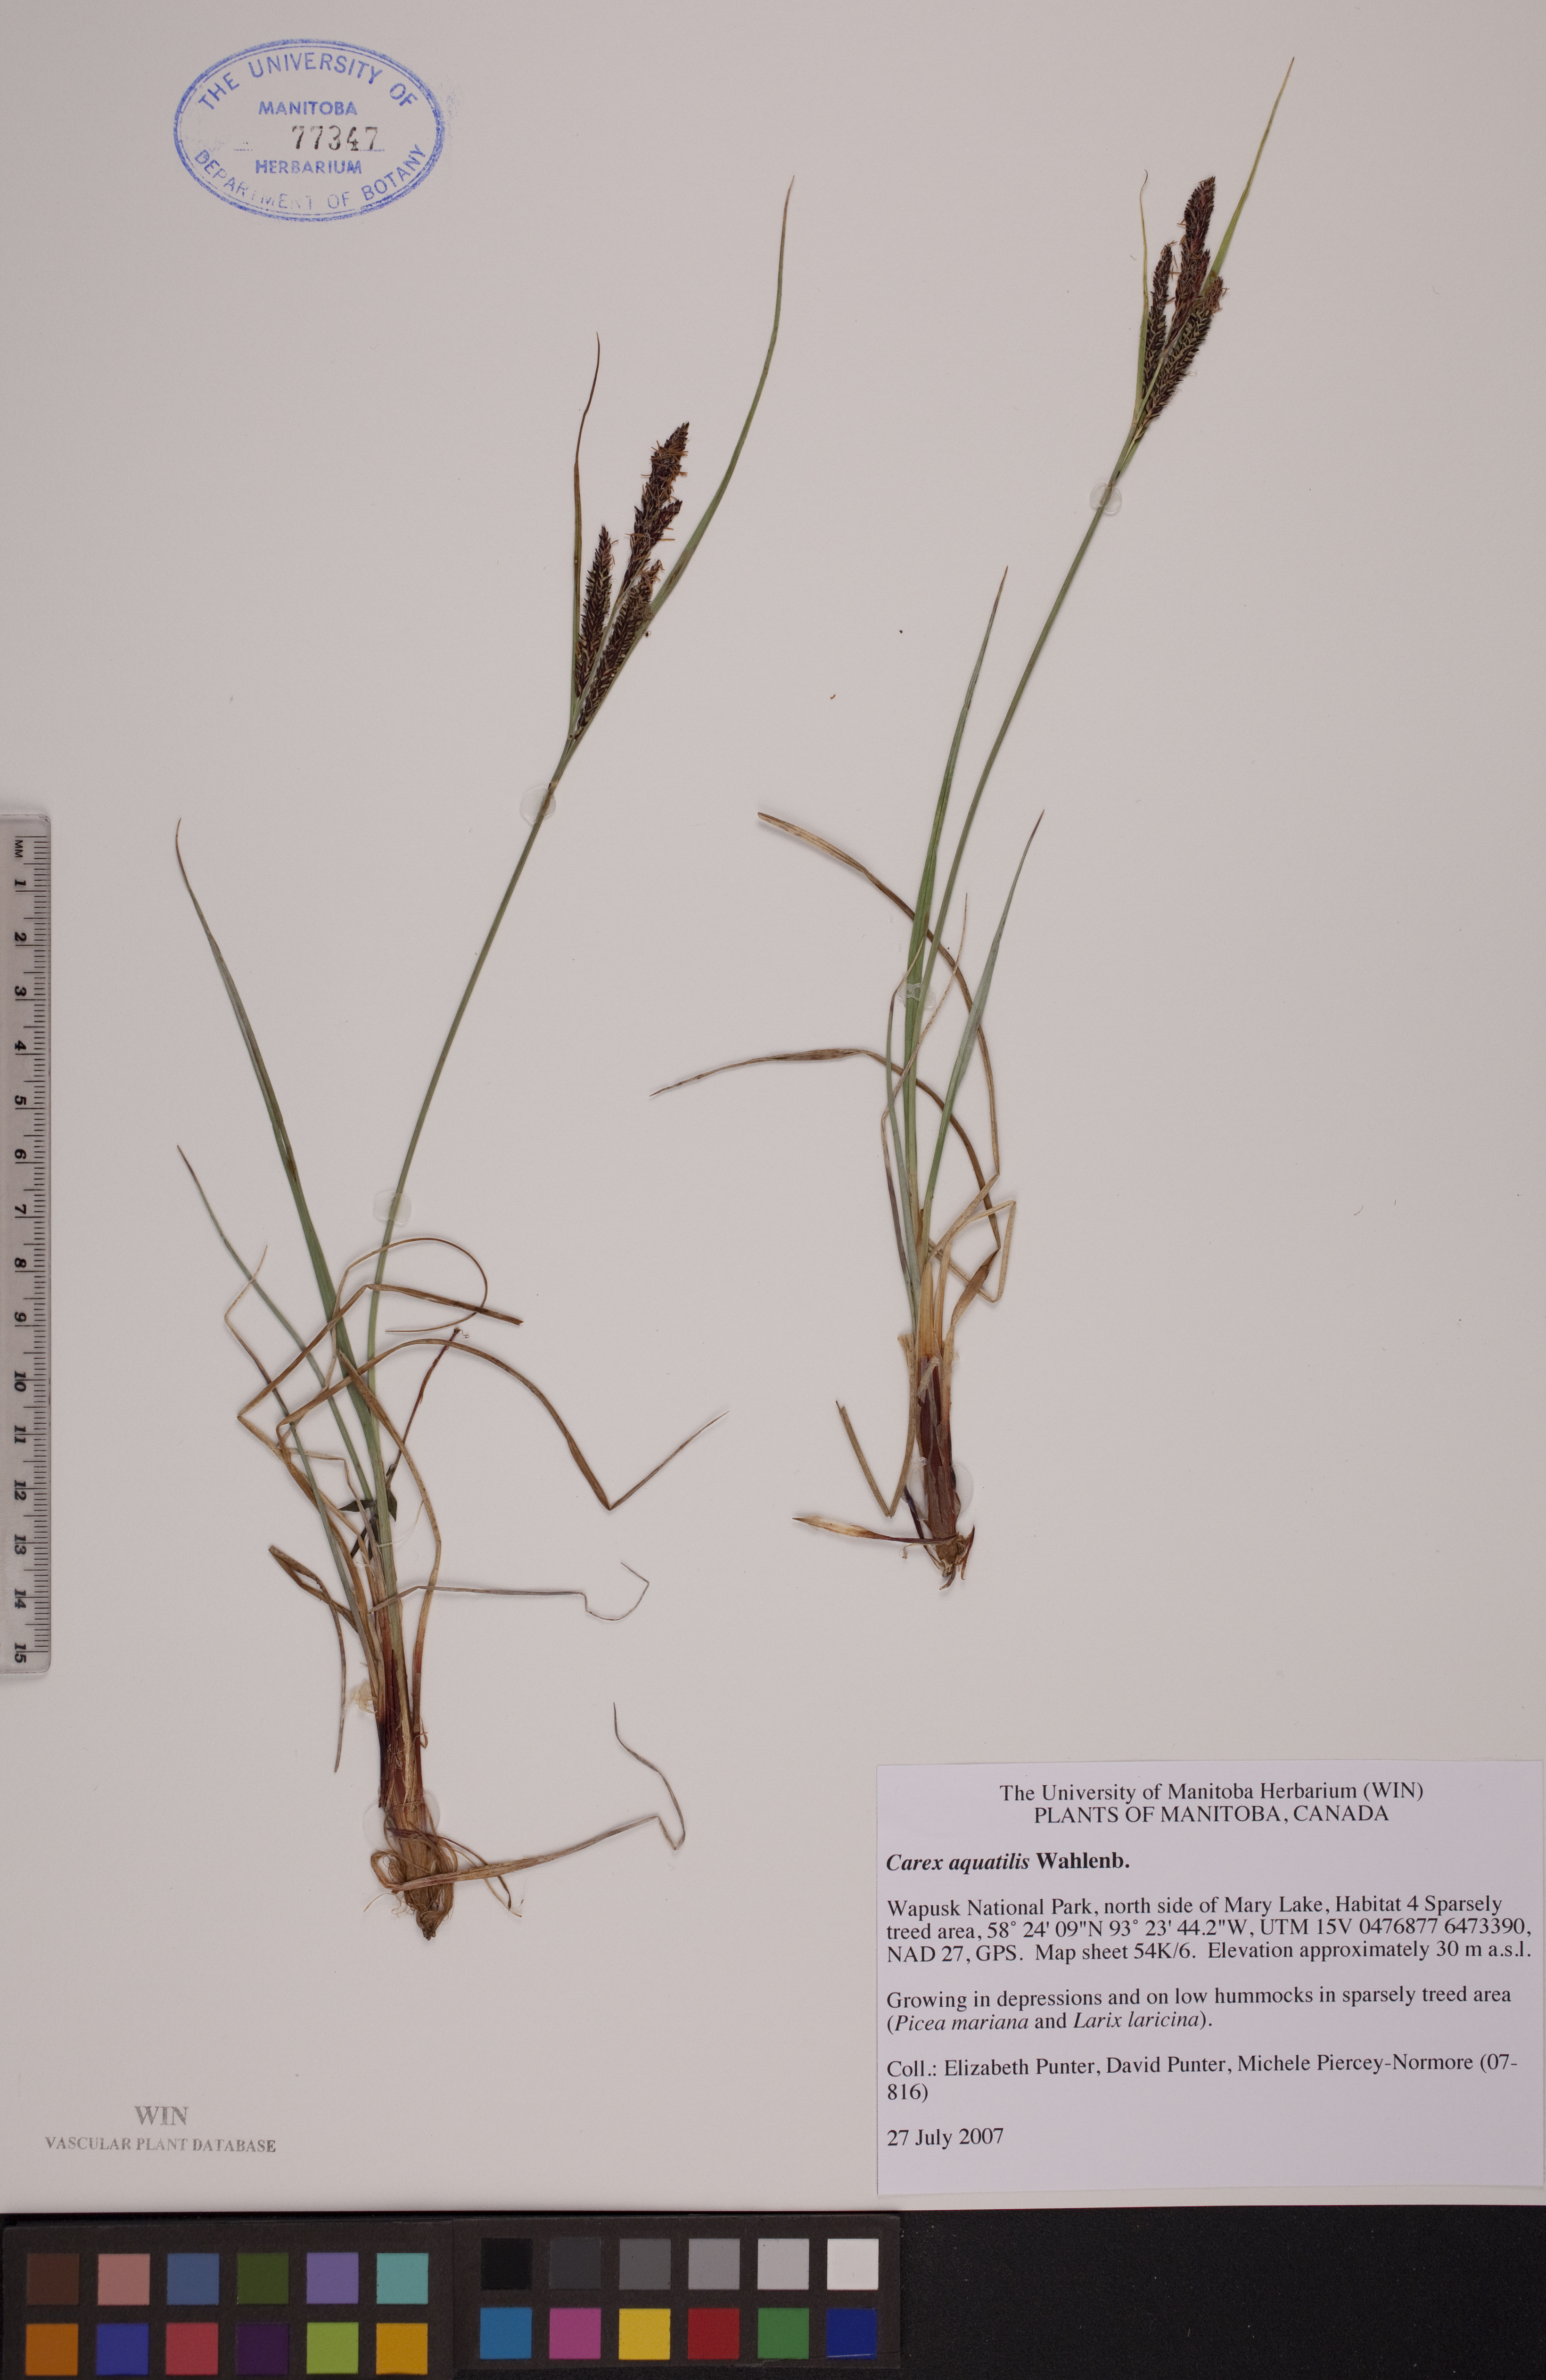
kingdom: Plantae
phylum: Tracheophyta
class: Liliopsida
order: Poales
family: Cyperaceae
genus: Carex
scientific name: Carex aquatilis
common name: Water sedge
